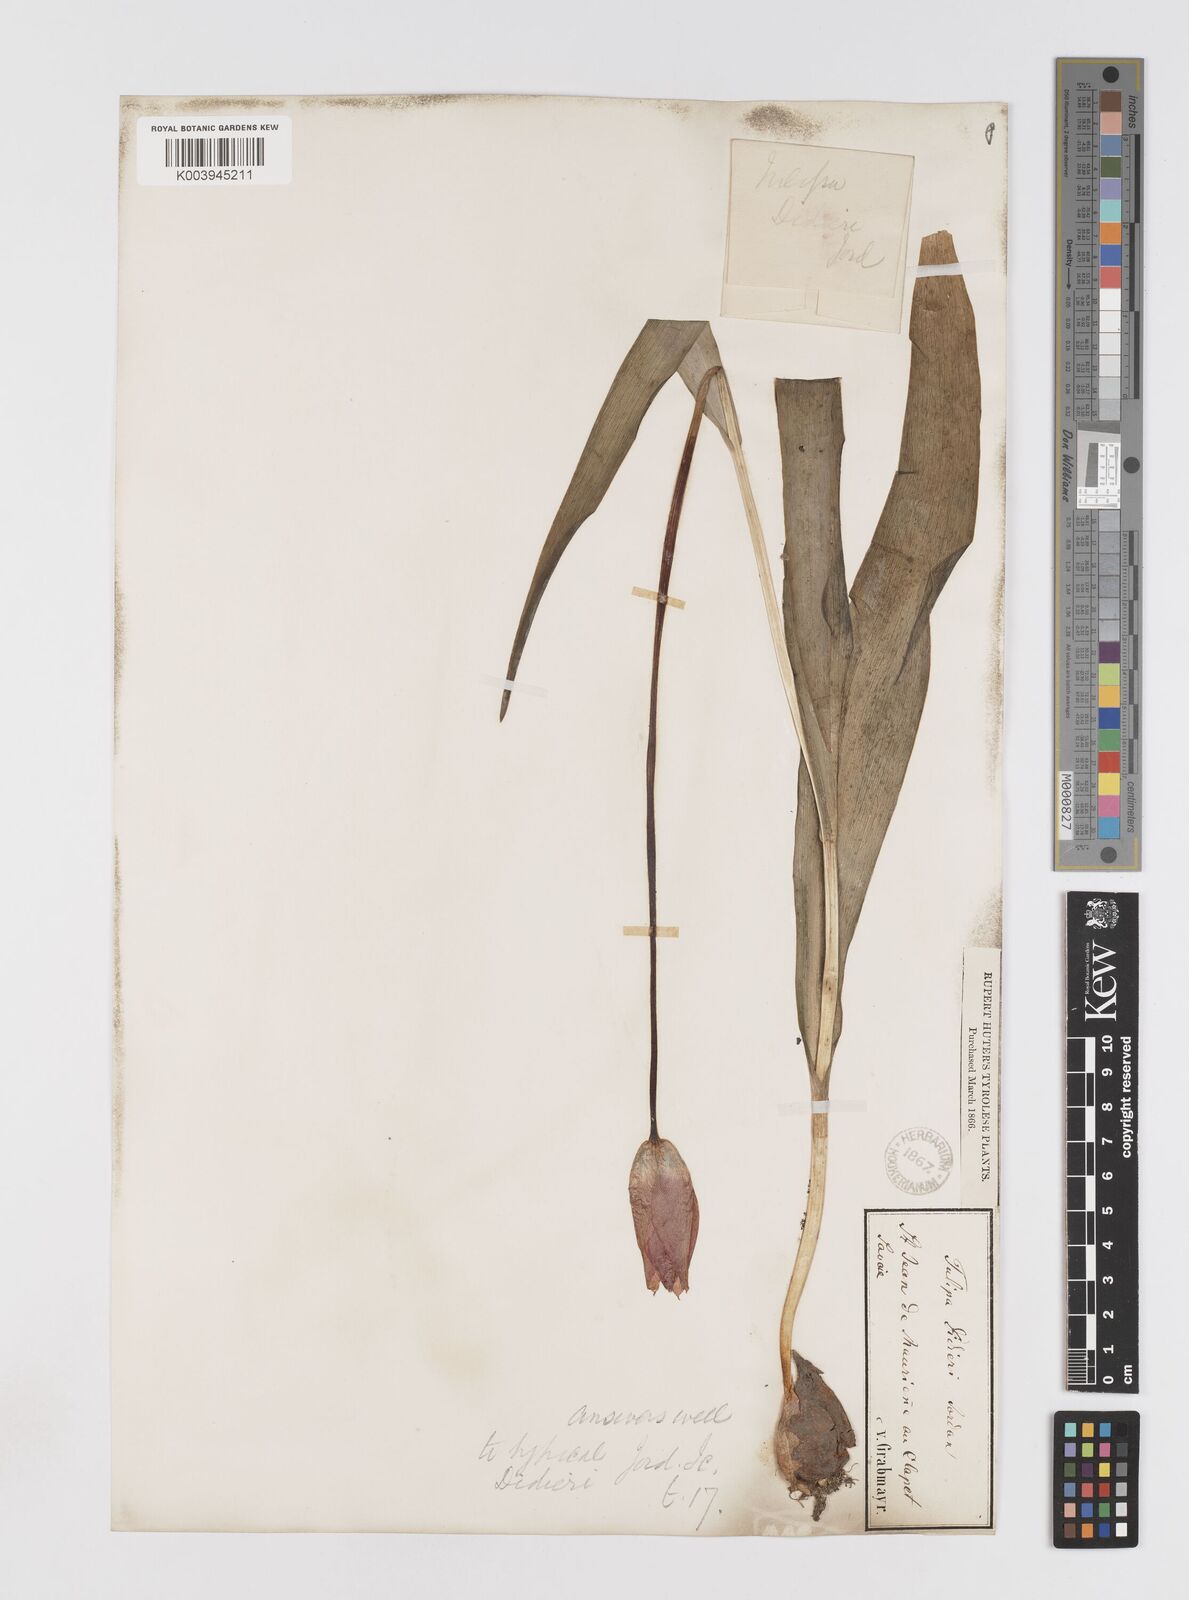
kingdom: Plantae
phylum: Tracheophyta
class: Liliopsida
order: Liliales
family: Liliaceae
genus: Tulipa
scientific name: Tulipa gesneriana
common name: Garden tulip
